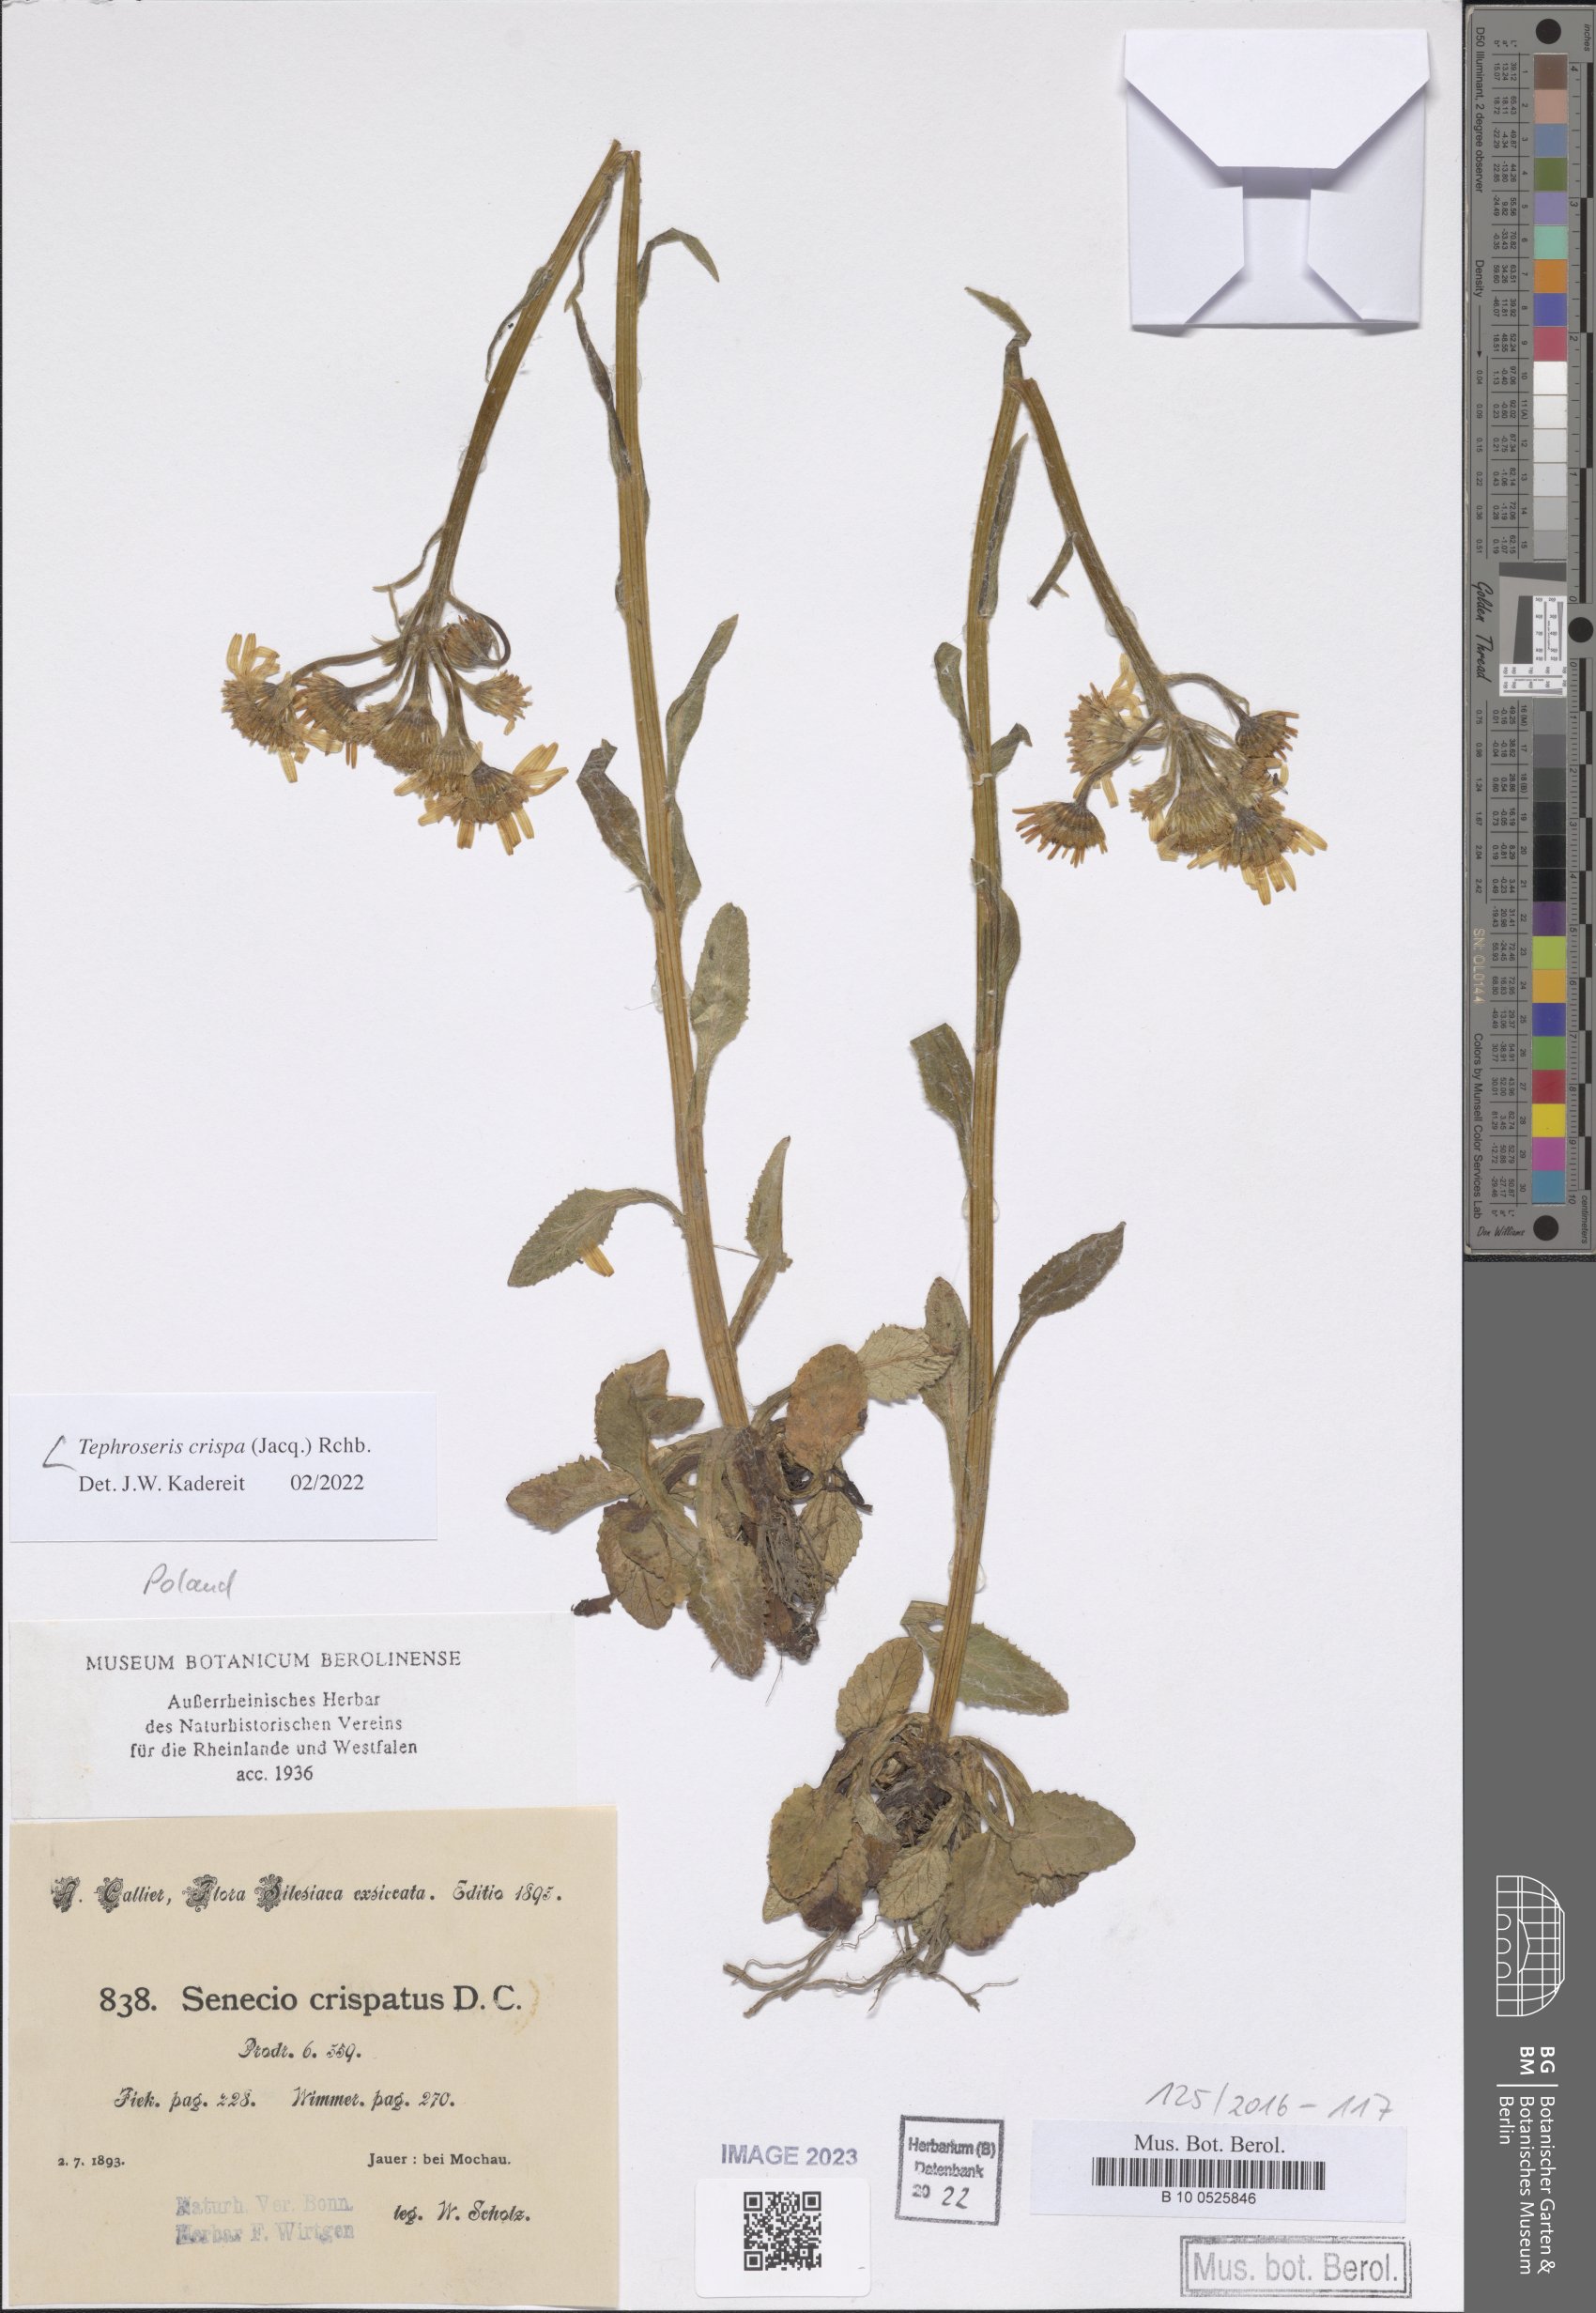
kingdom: Plantae
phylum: Tracheophyta
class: Magnoliopsida
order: Asterales
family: Asteraceae
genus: Tephroseris
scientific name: Tephroseris crispa
